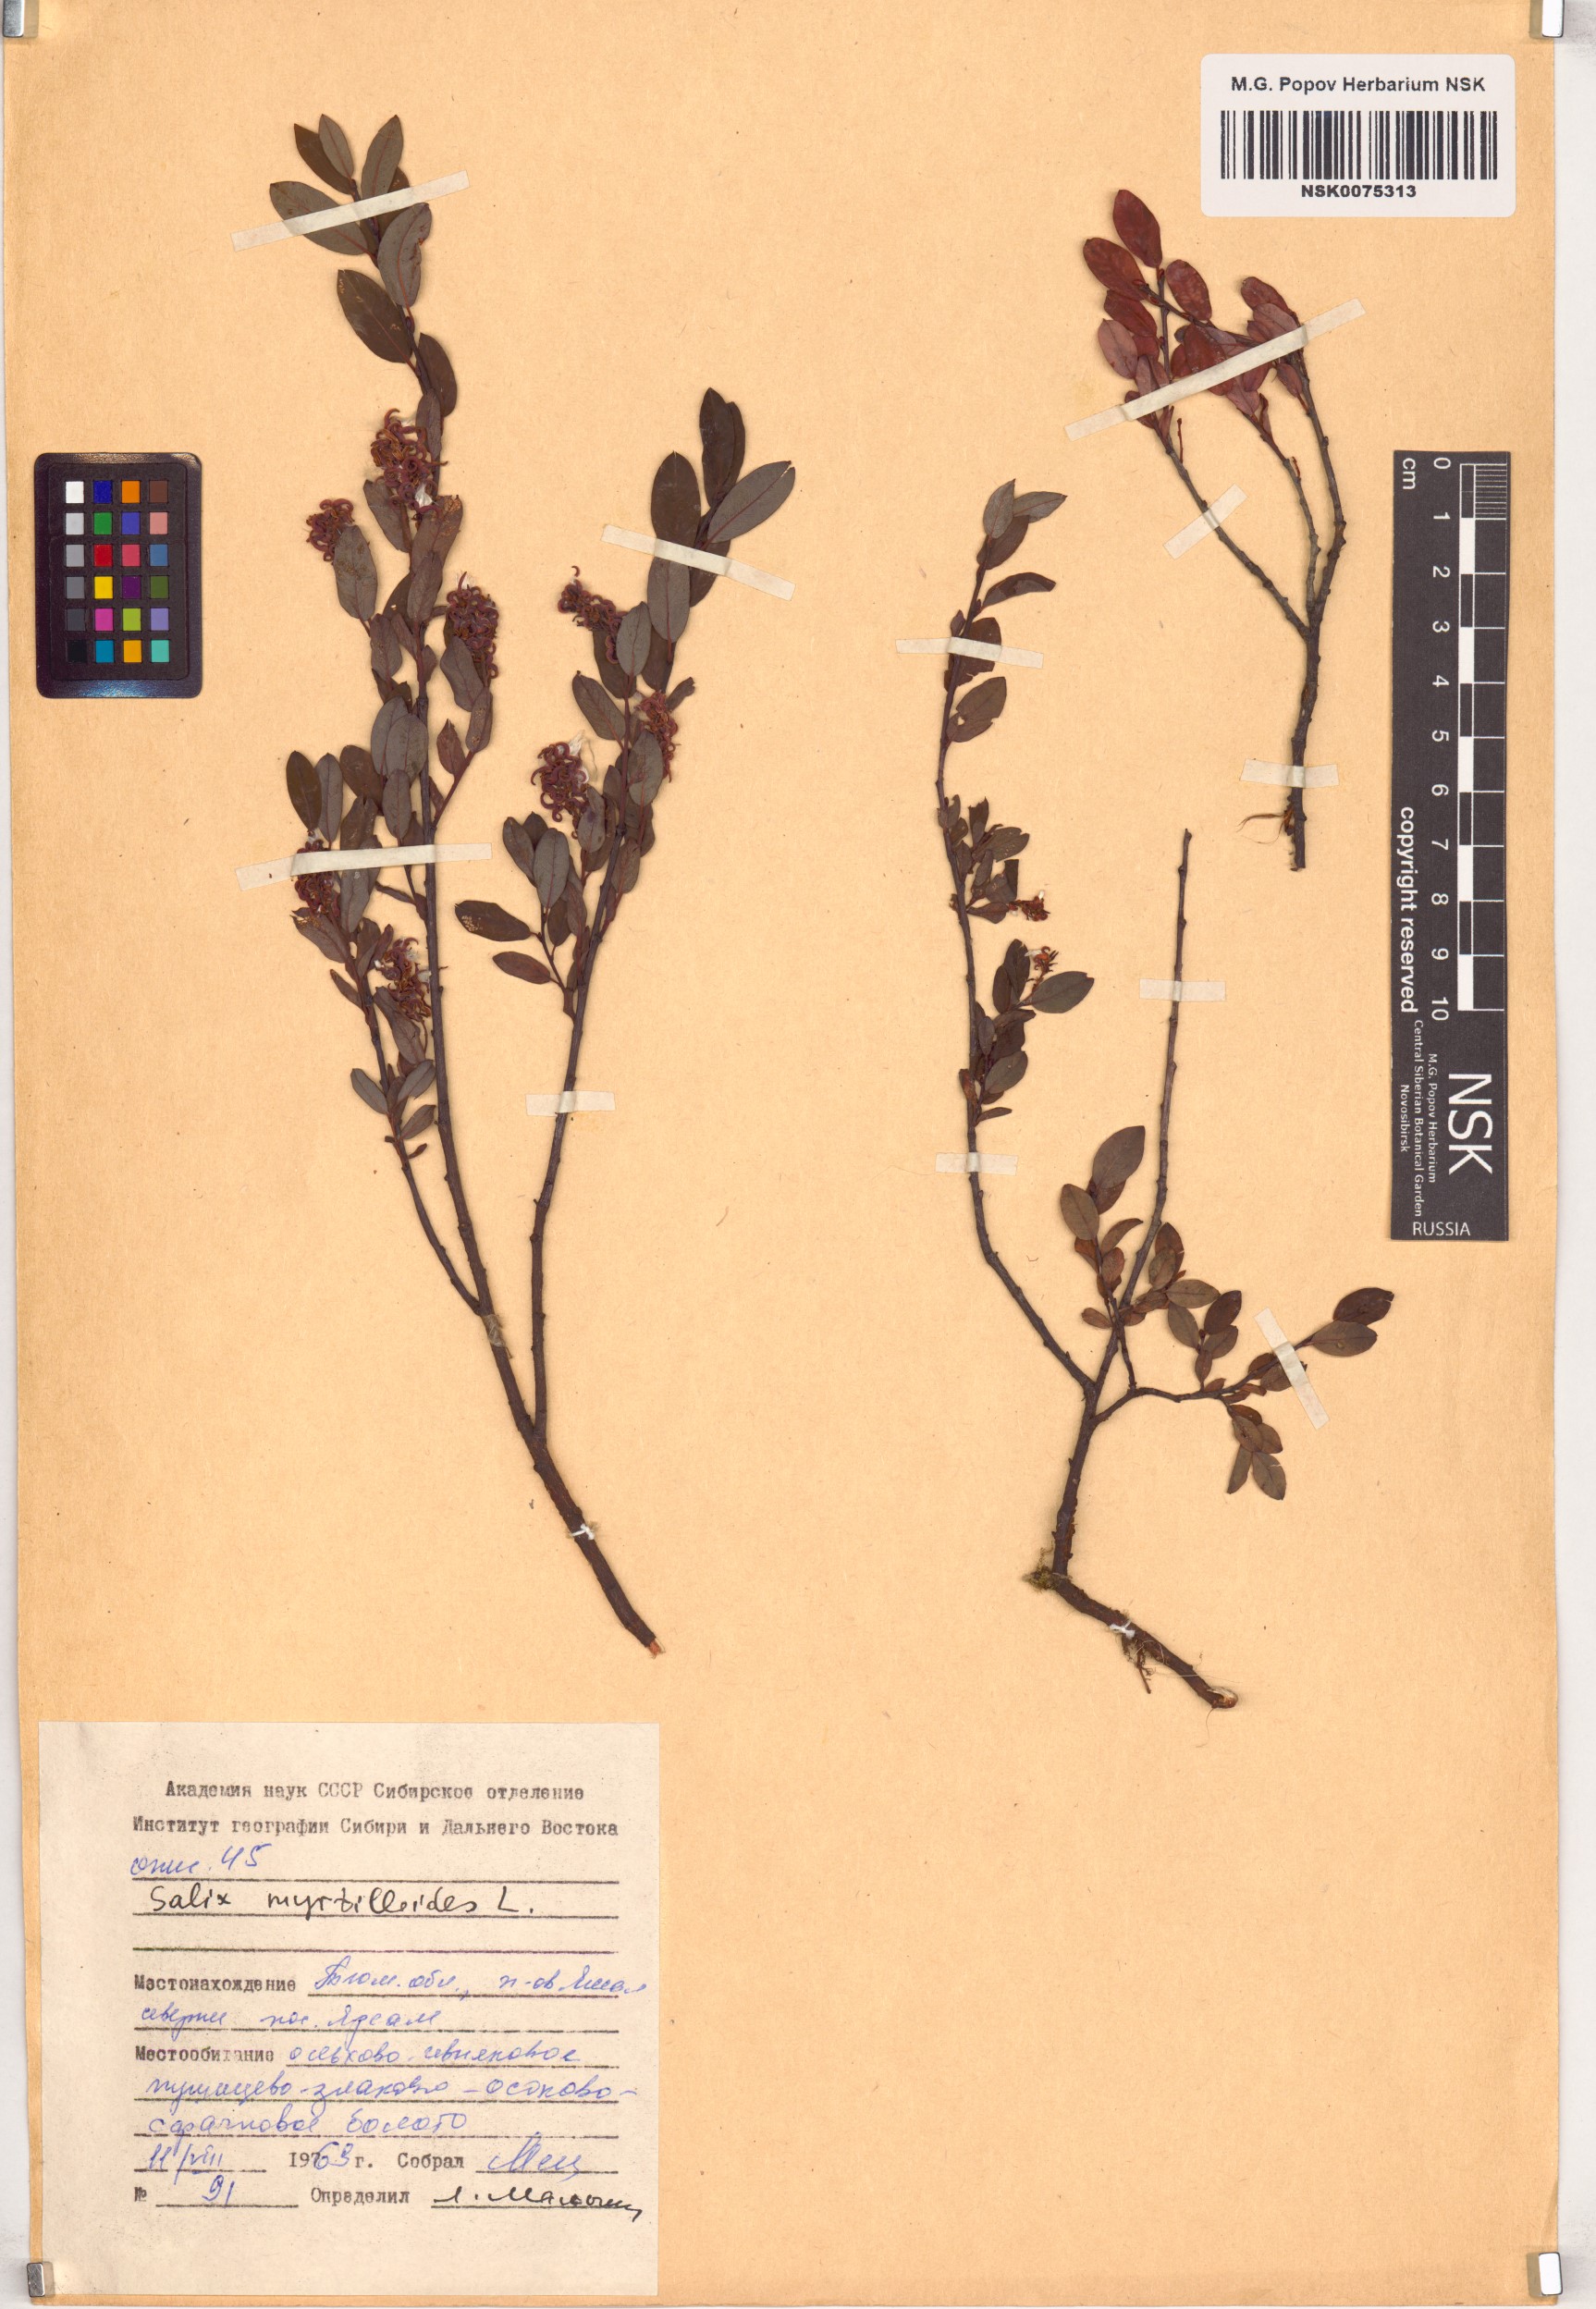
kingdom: Plantae
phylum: Tracheophyta
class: Magnoliopsida
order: Malpighiales
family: Salicaceae
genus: Salix
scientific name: Salix myrtilloides
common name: Myrtle-leaved willow
